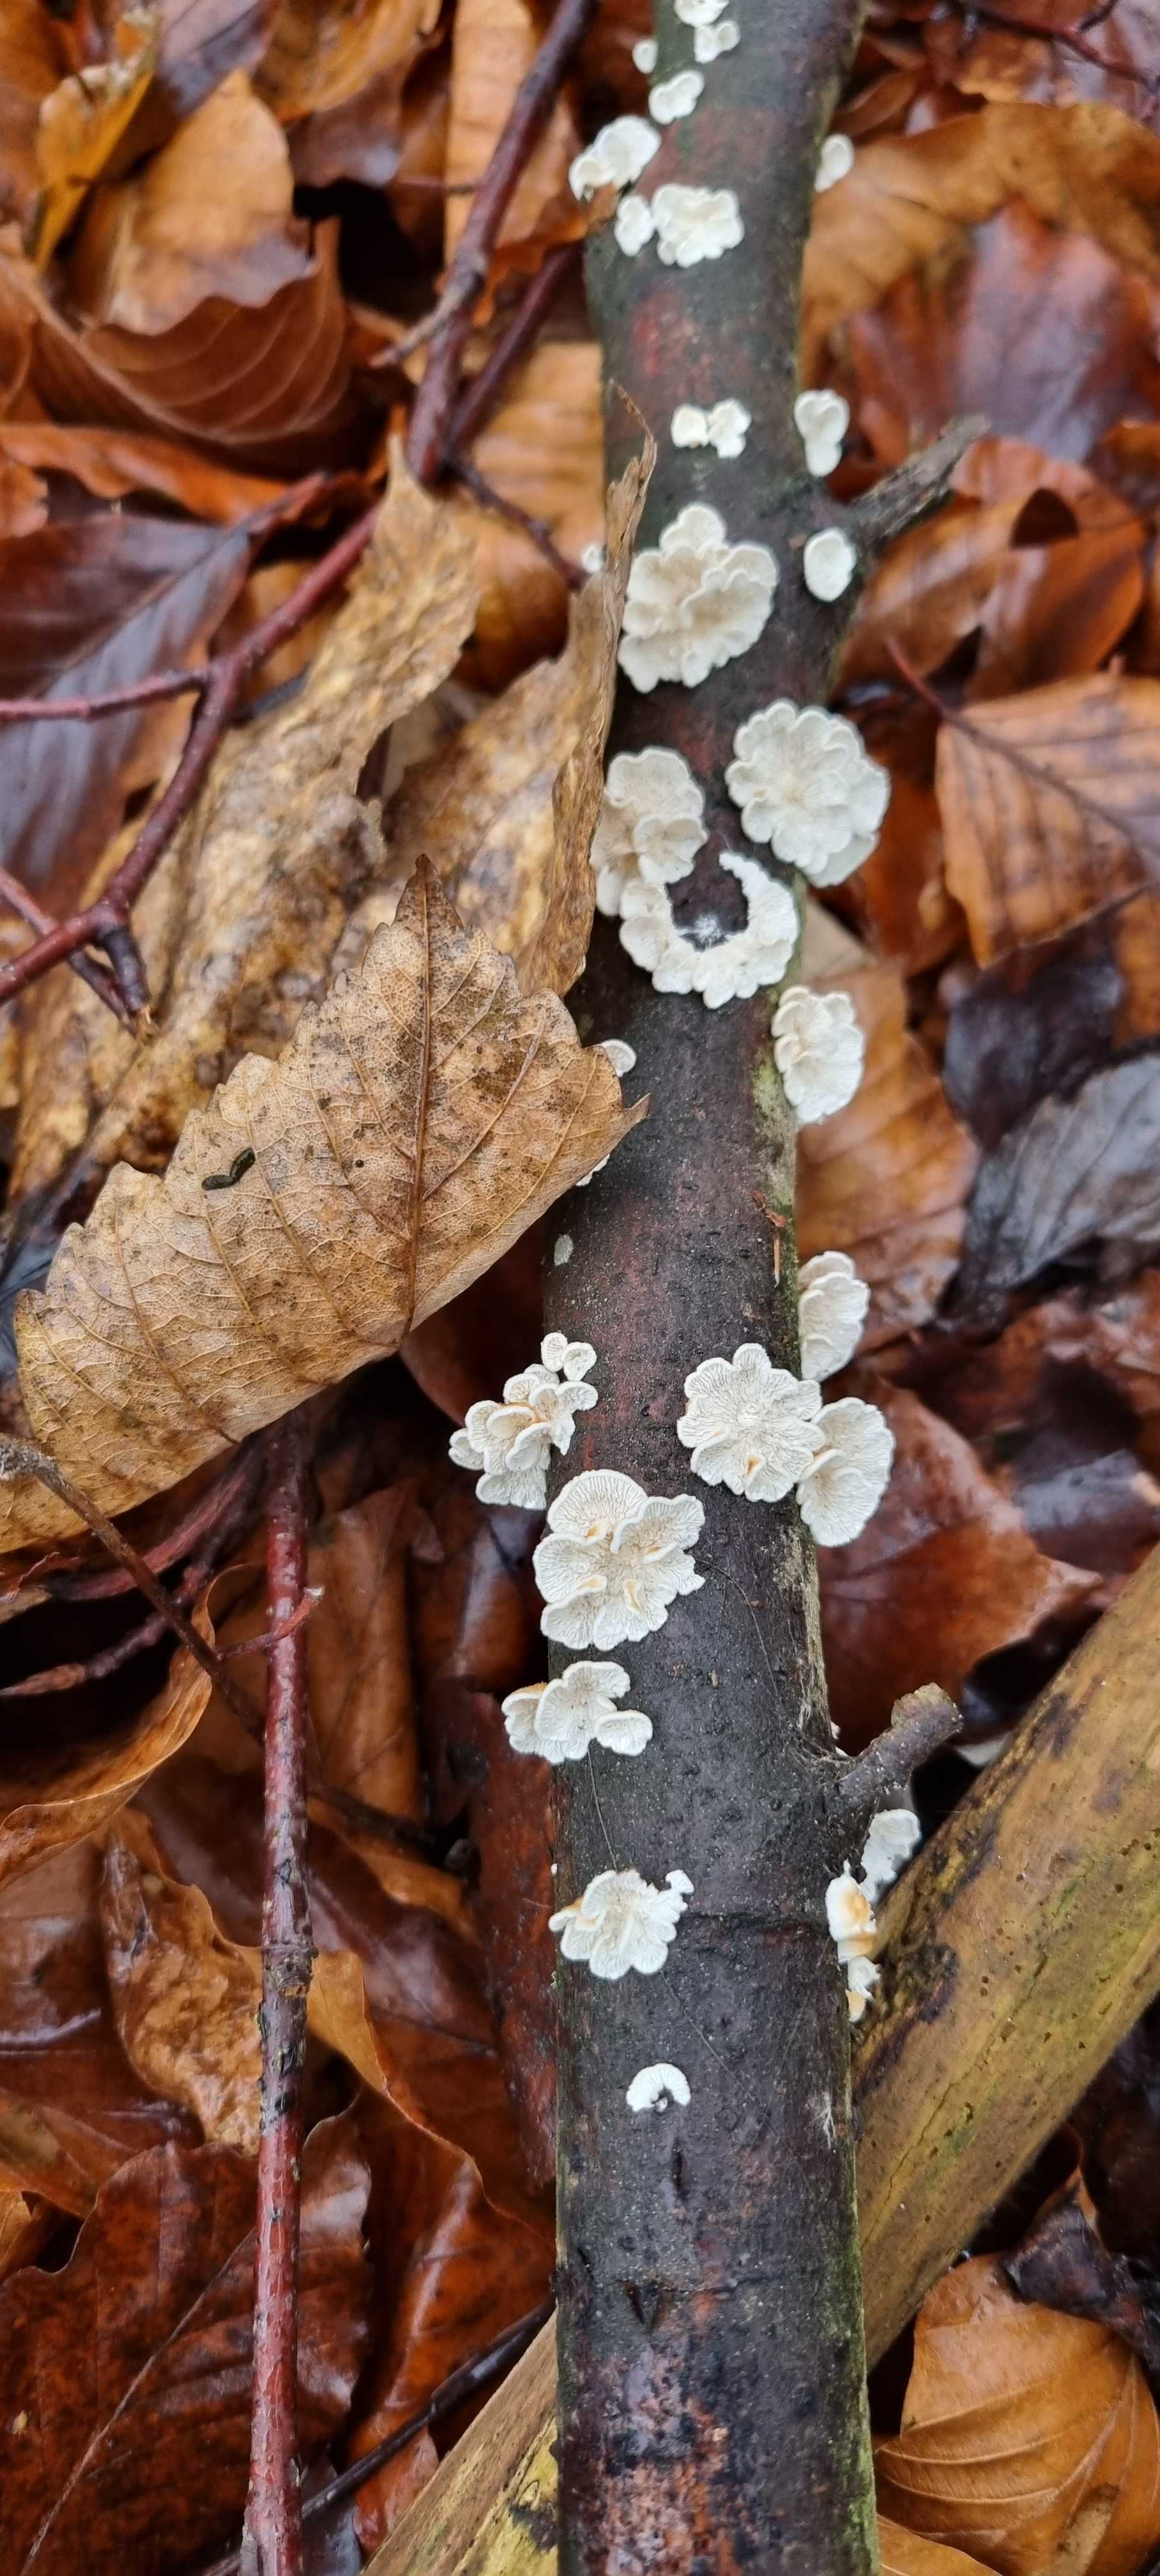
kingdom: Fungi
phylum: Basidiomycota
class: Agaricomycetes
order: Amylocorticiales
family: Amylocorticiaceae
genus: Plicaturopsis
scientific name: Plicaturopsis crispa
